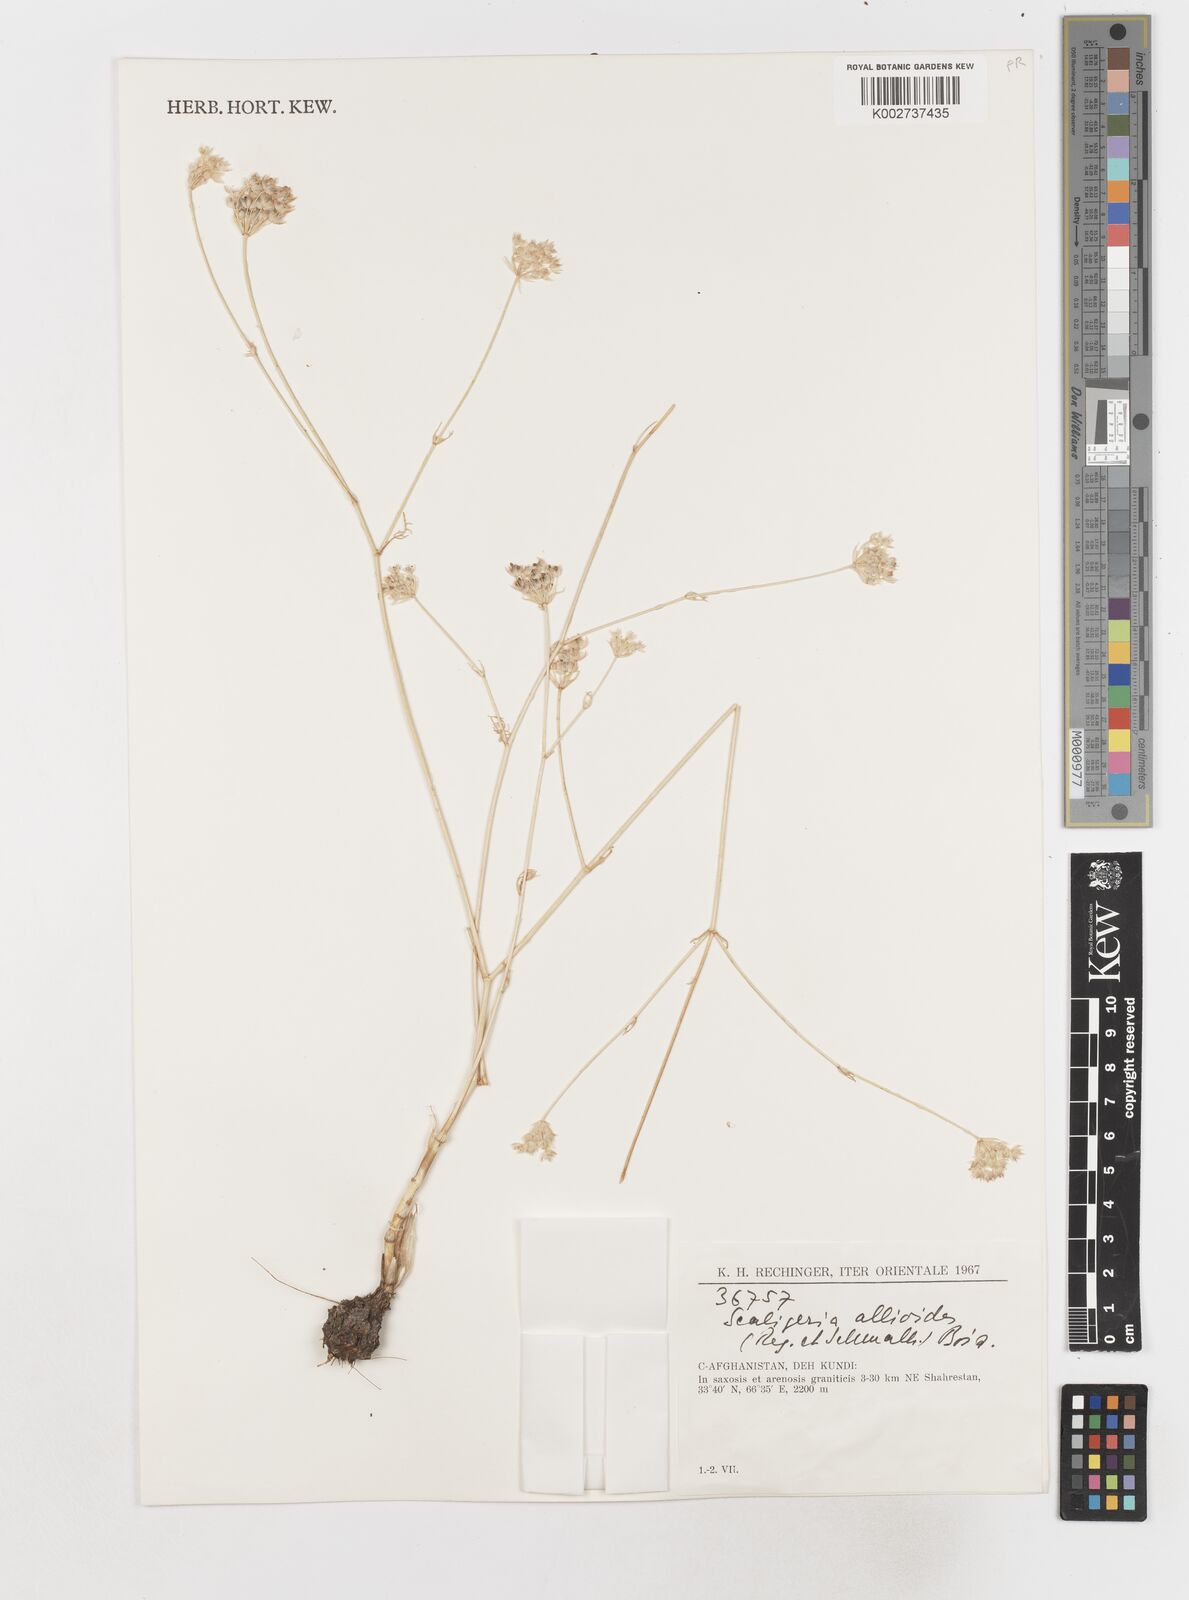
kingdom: Plantae
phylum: Tracheophyta
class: Magnoliopsida
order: Apiales
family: Apiaceae
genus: Scaligeria
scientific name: Scaligeria allioides
